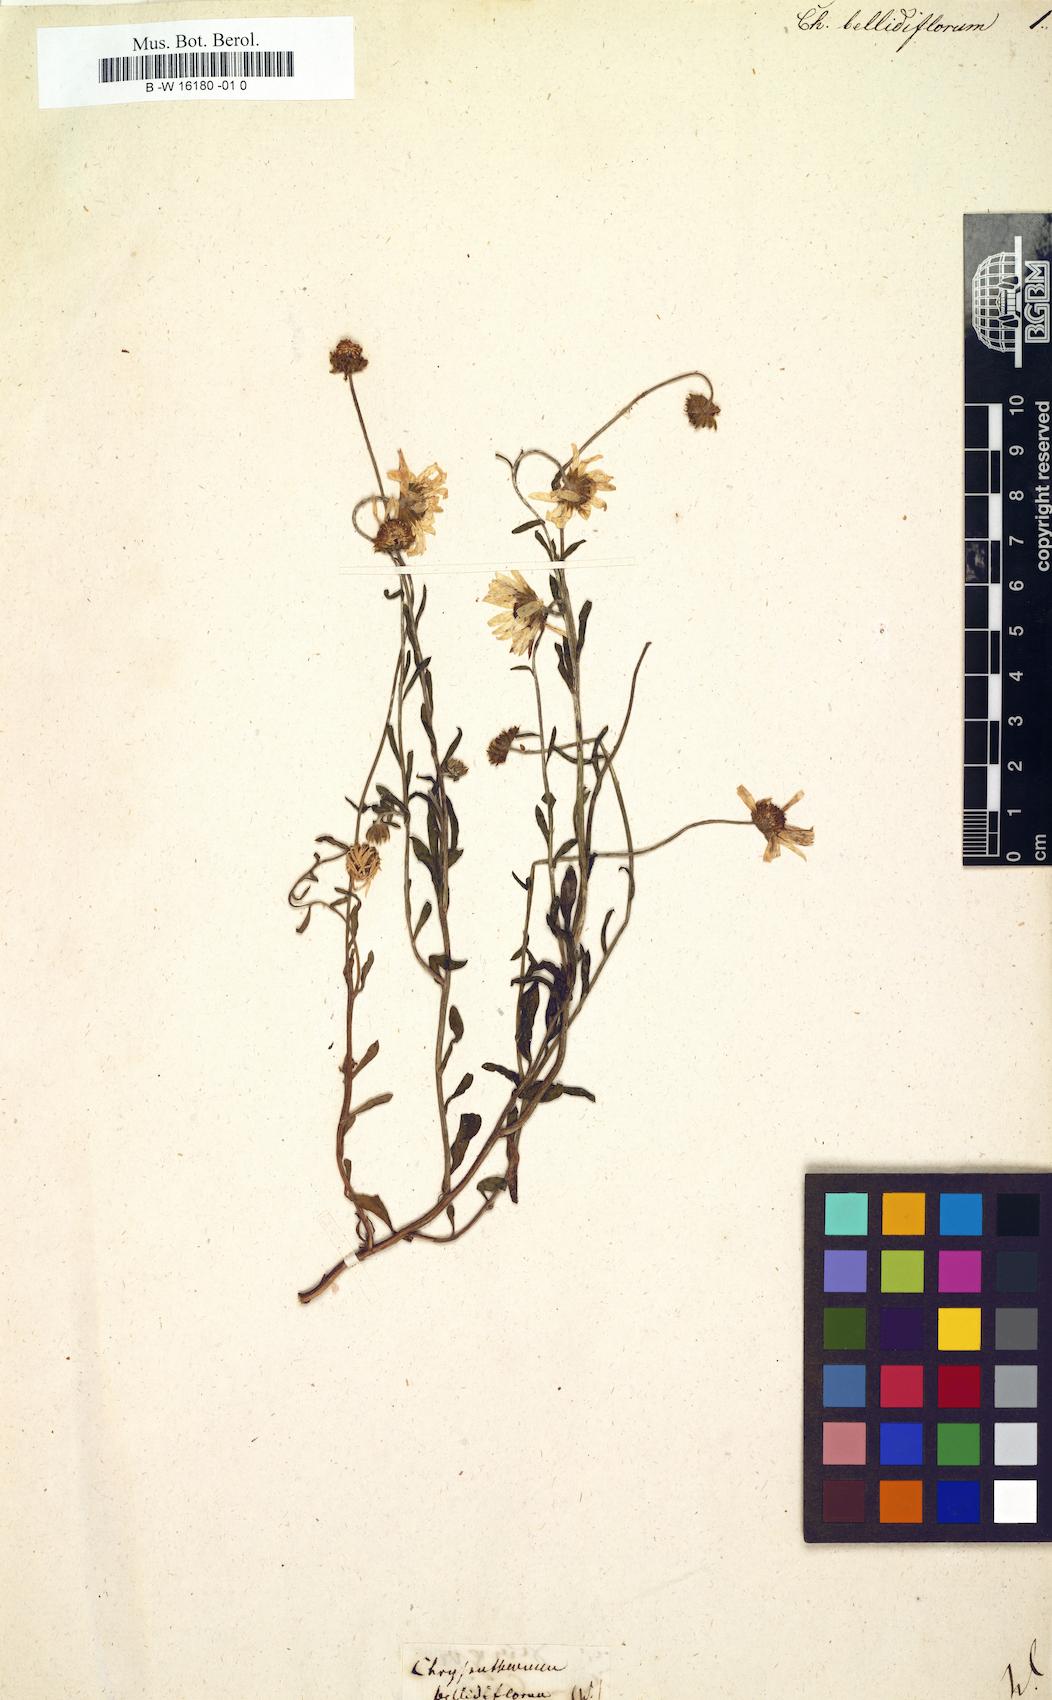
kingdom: Plantae
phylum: Tracheophyta
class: Magnoliopsida
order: Asterales
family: Asteraceae
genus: Bellis
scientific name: Bellis dubia
